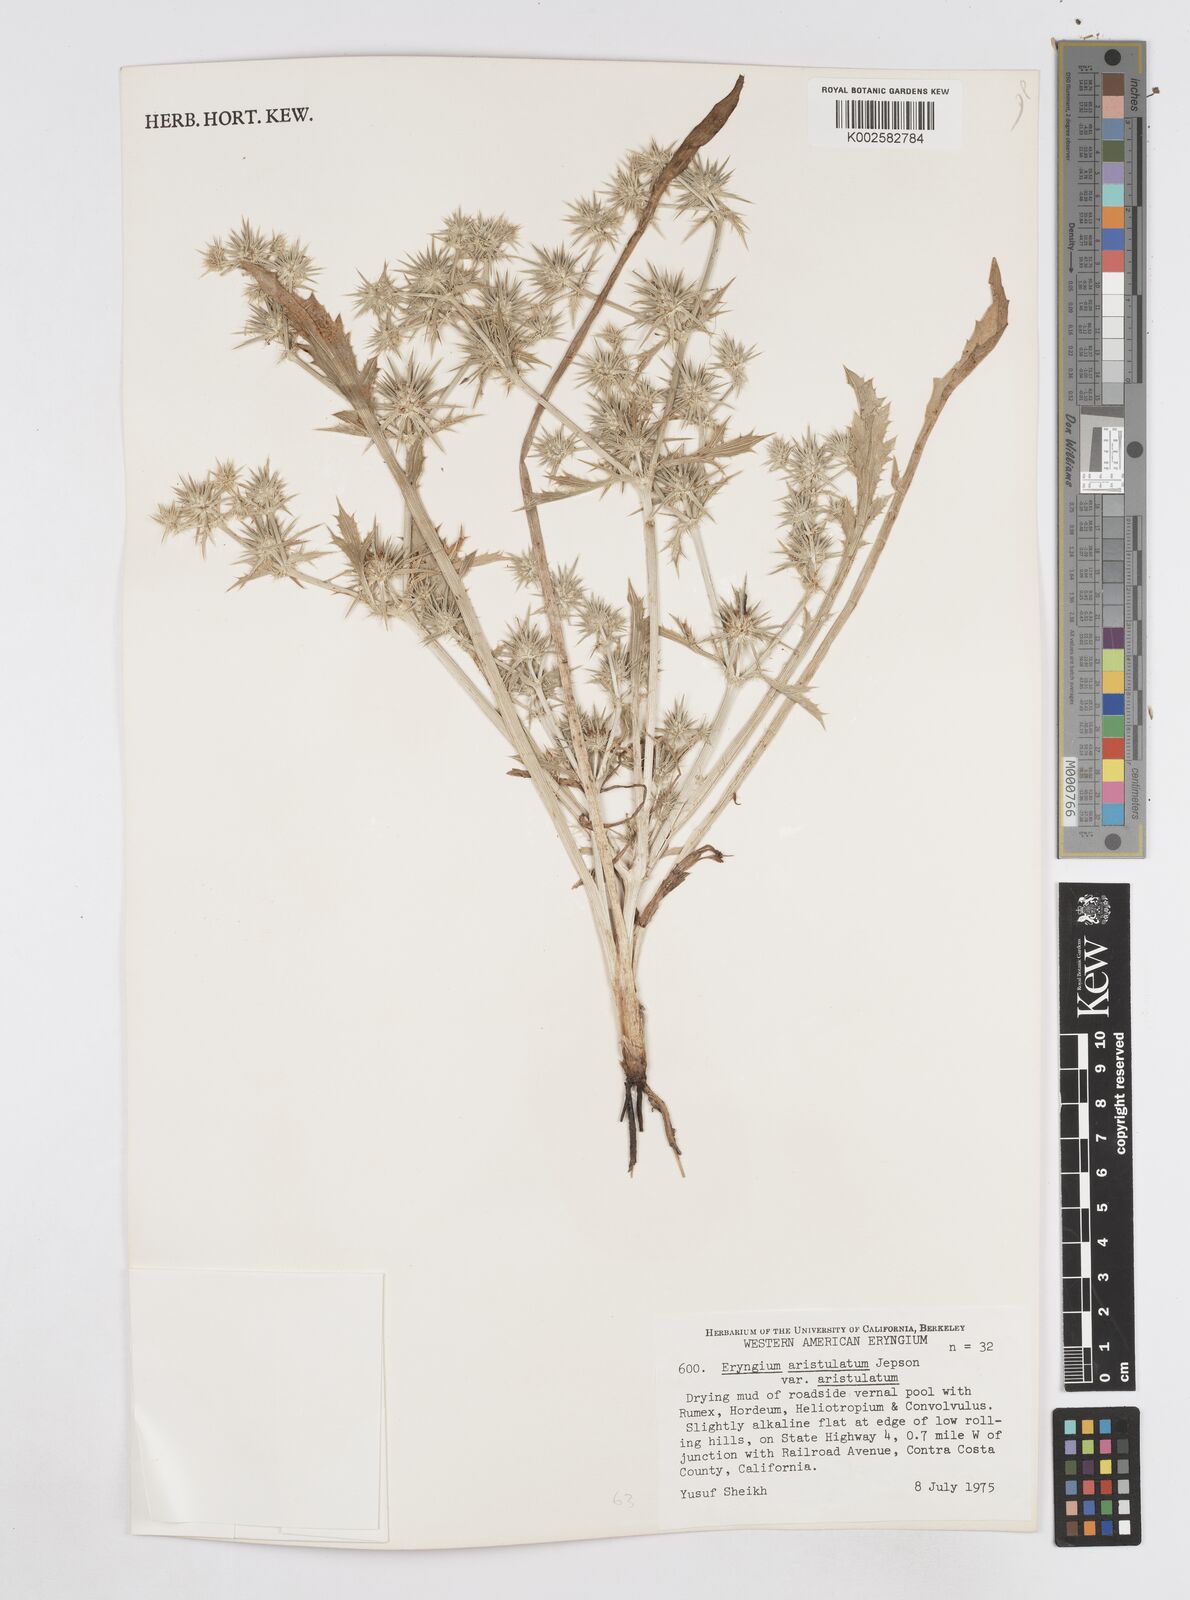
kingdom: Plantae
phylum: Tracheophyta
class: Magnoliopsida
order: Apiales
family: Apiaceae
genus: Eryngium
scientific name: Eryngium aristulatum
